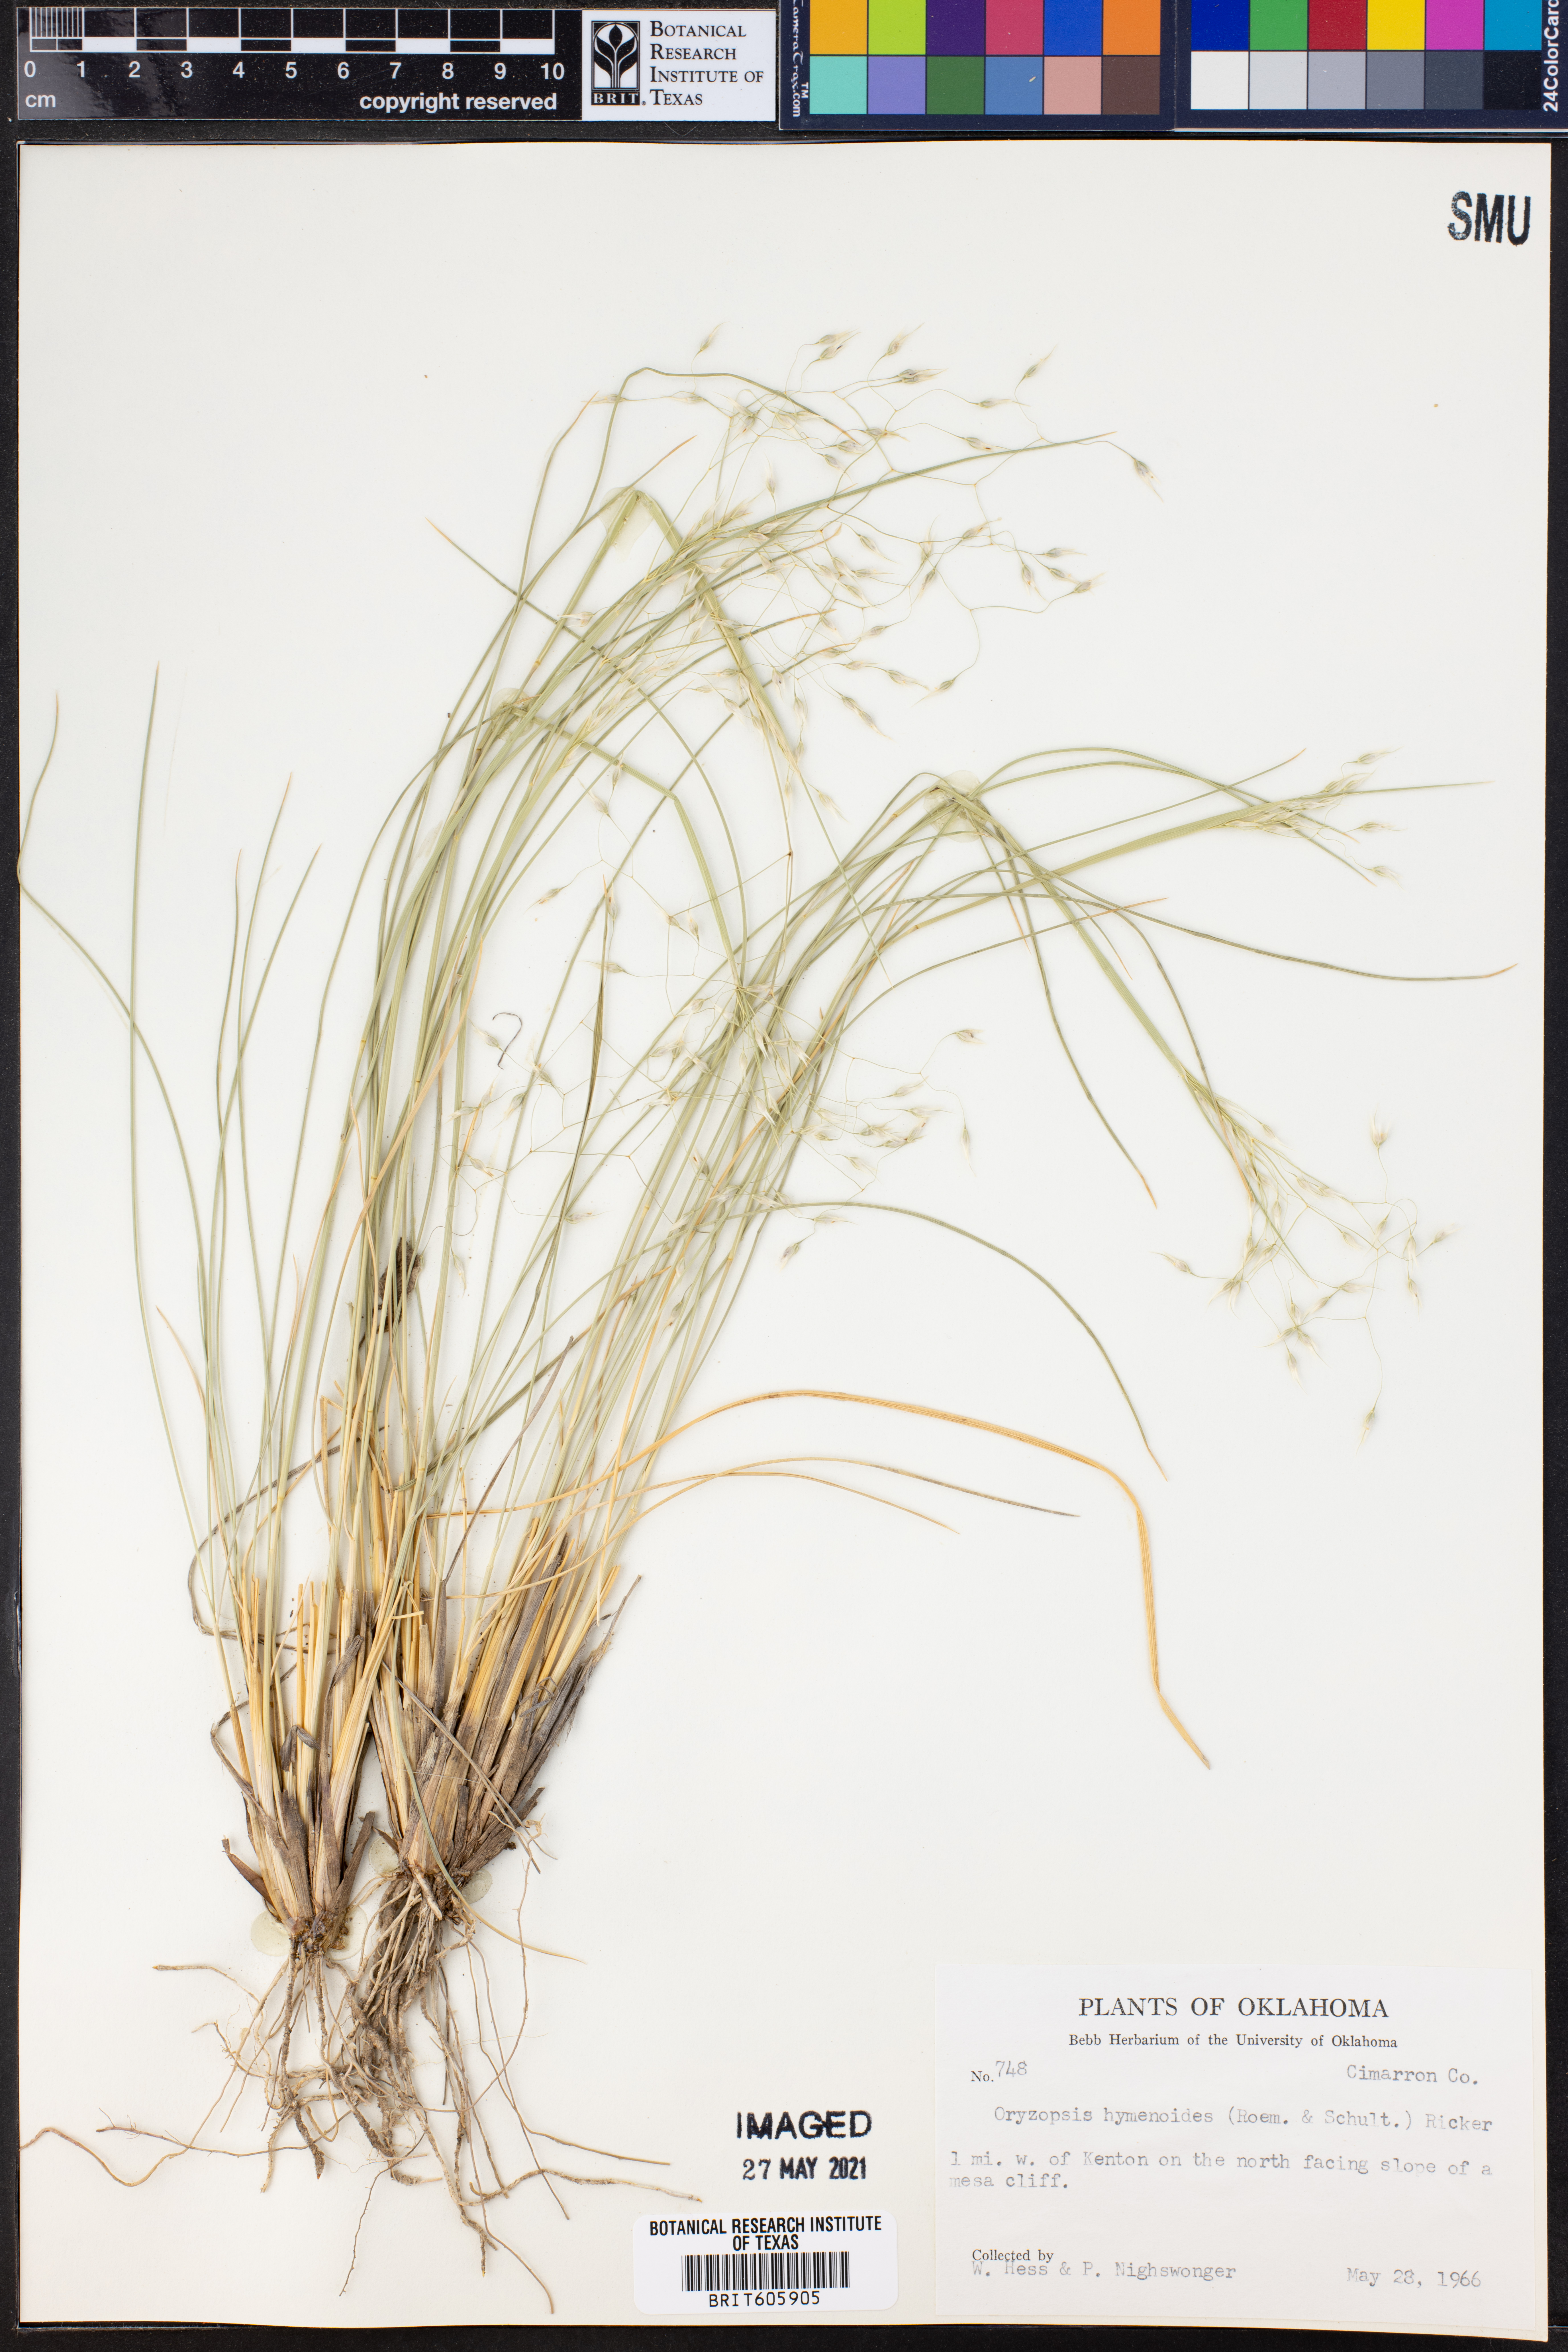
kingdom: Plantae
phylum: Tracheophyta
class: Liliopsida
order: Poales
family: Poaceae
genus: Eriocoma
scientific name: Eriocoma hymenoides
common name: Indian mountain ricegrass
